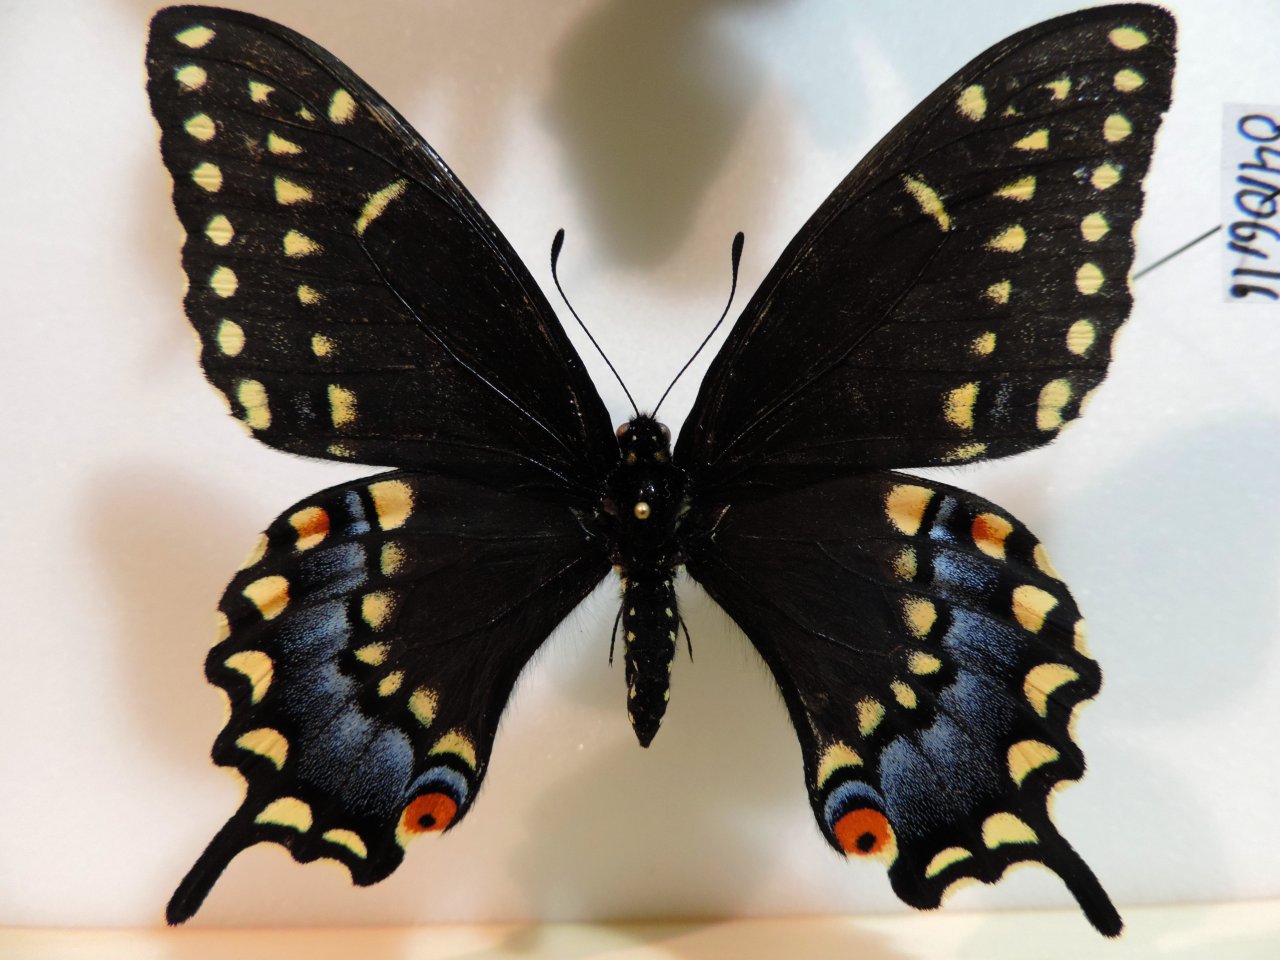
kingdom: Animalia
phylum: Arthropoda
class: Insecta
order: Lepidoptera
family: Papilionidae
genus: Papilio
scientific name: Papilio polyxenes
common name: Black Swallowtail
